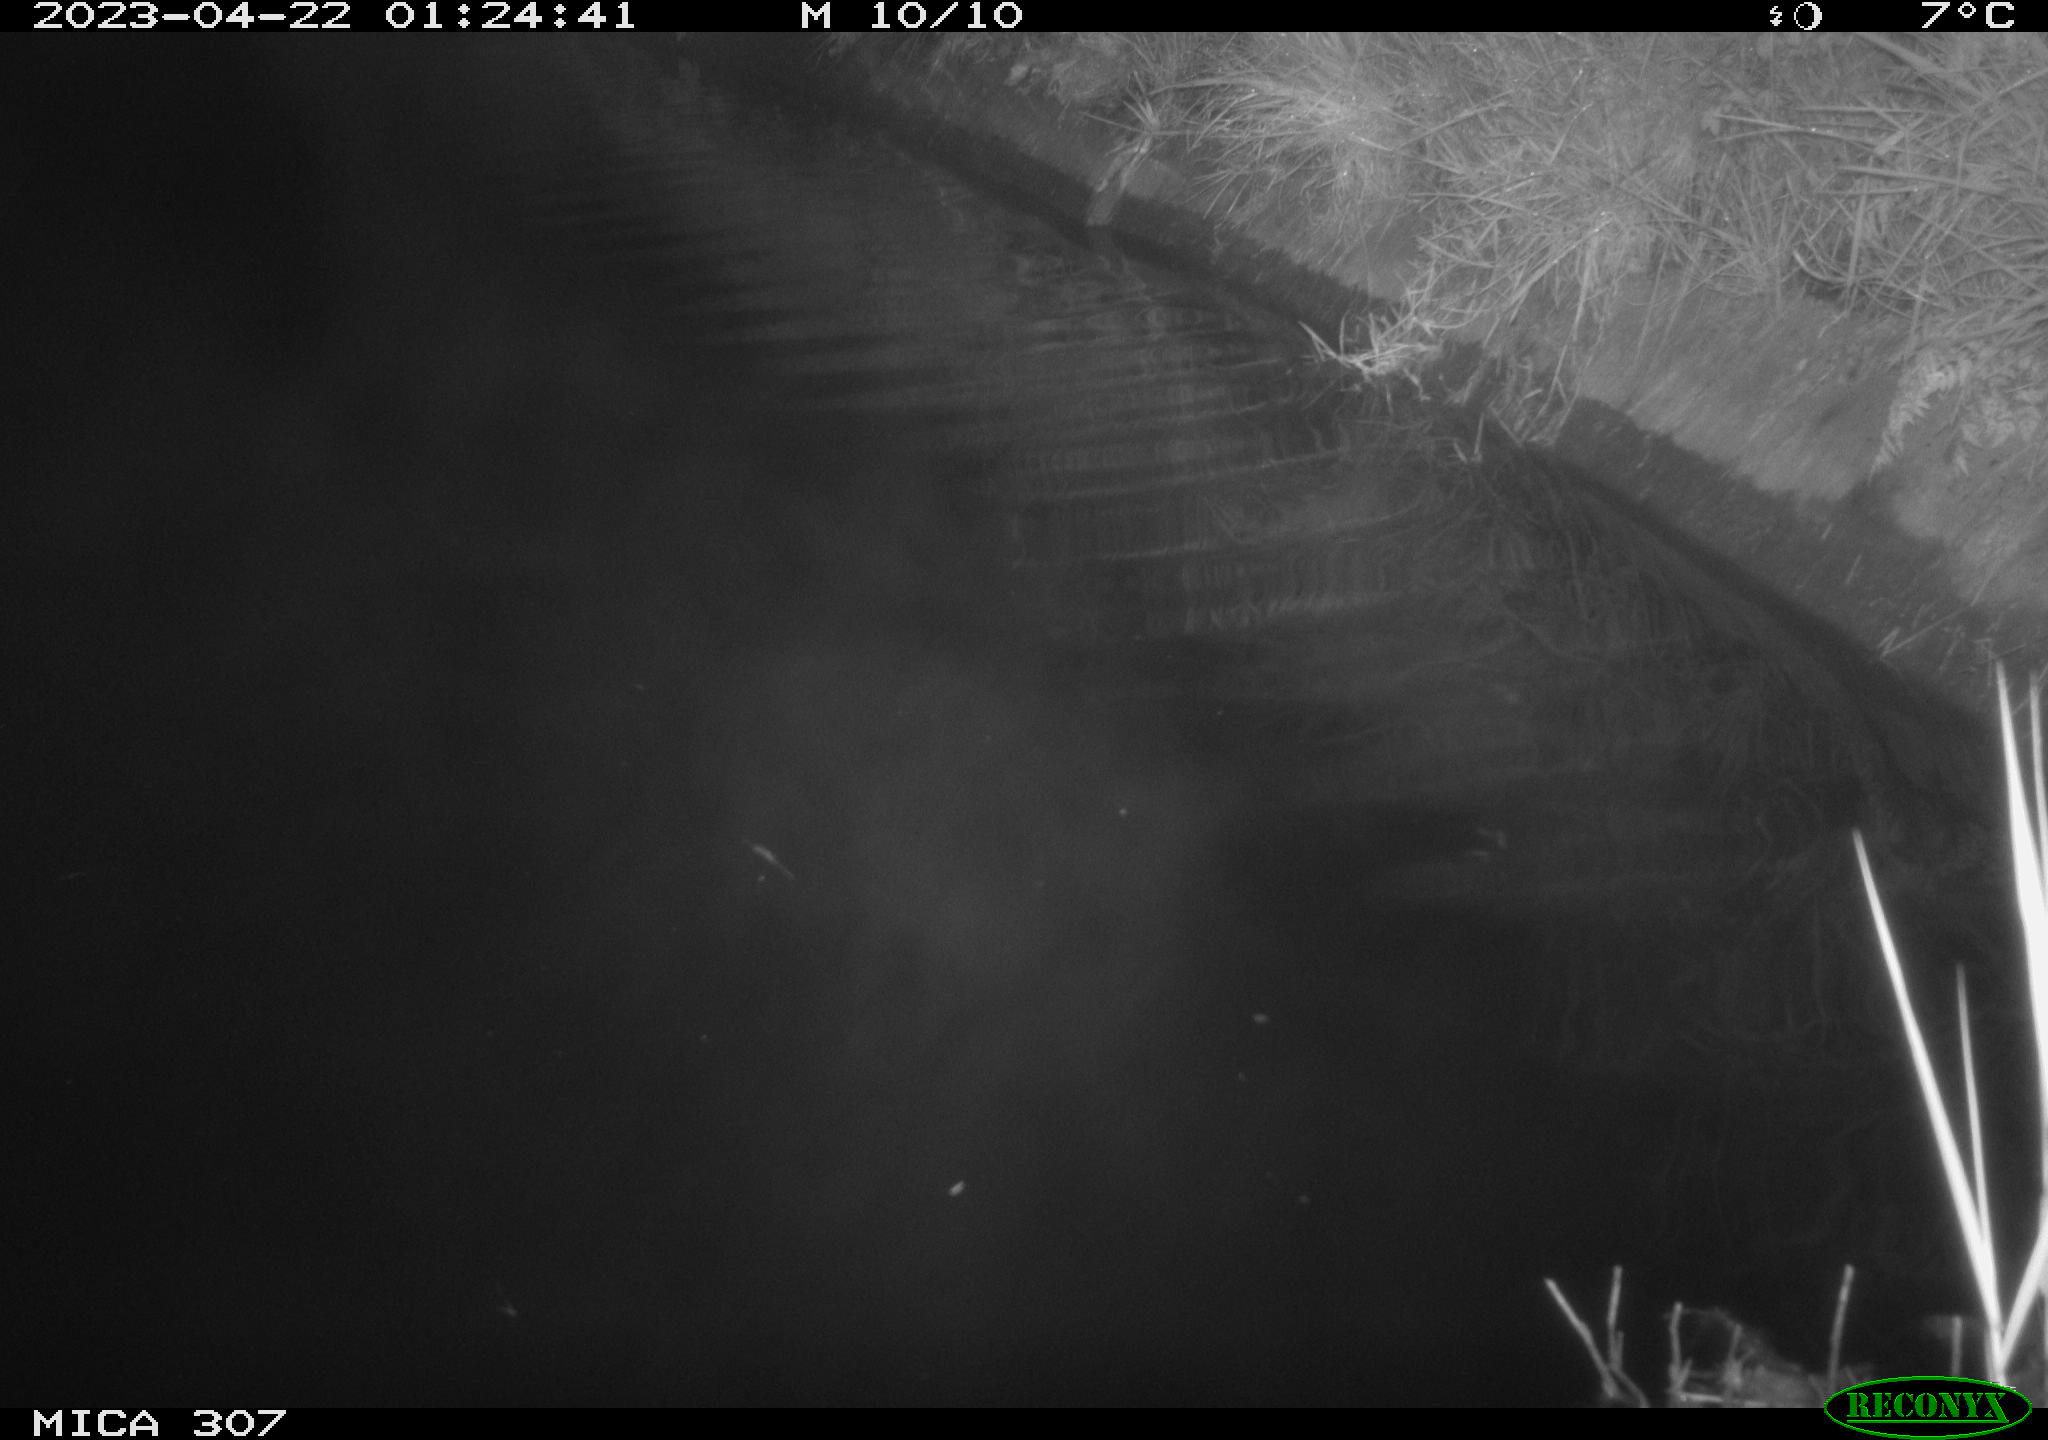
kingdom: Animalia
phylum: Chordata
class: Aves
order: Anseriformes
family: Anatidae
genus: Anas
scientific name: Anas
